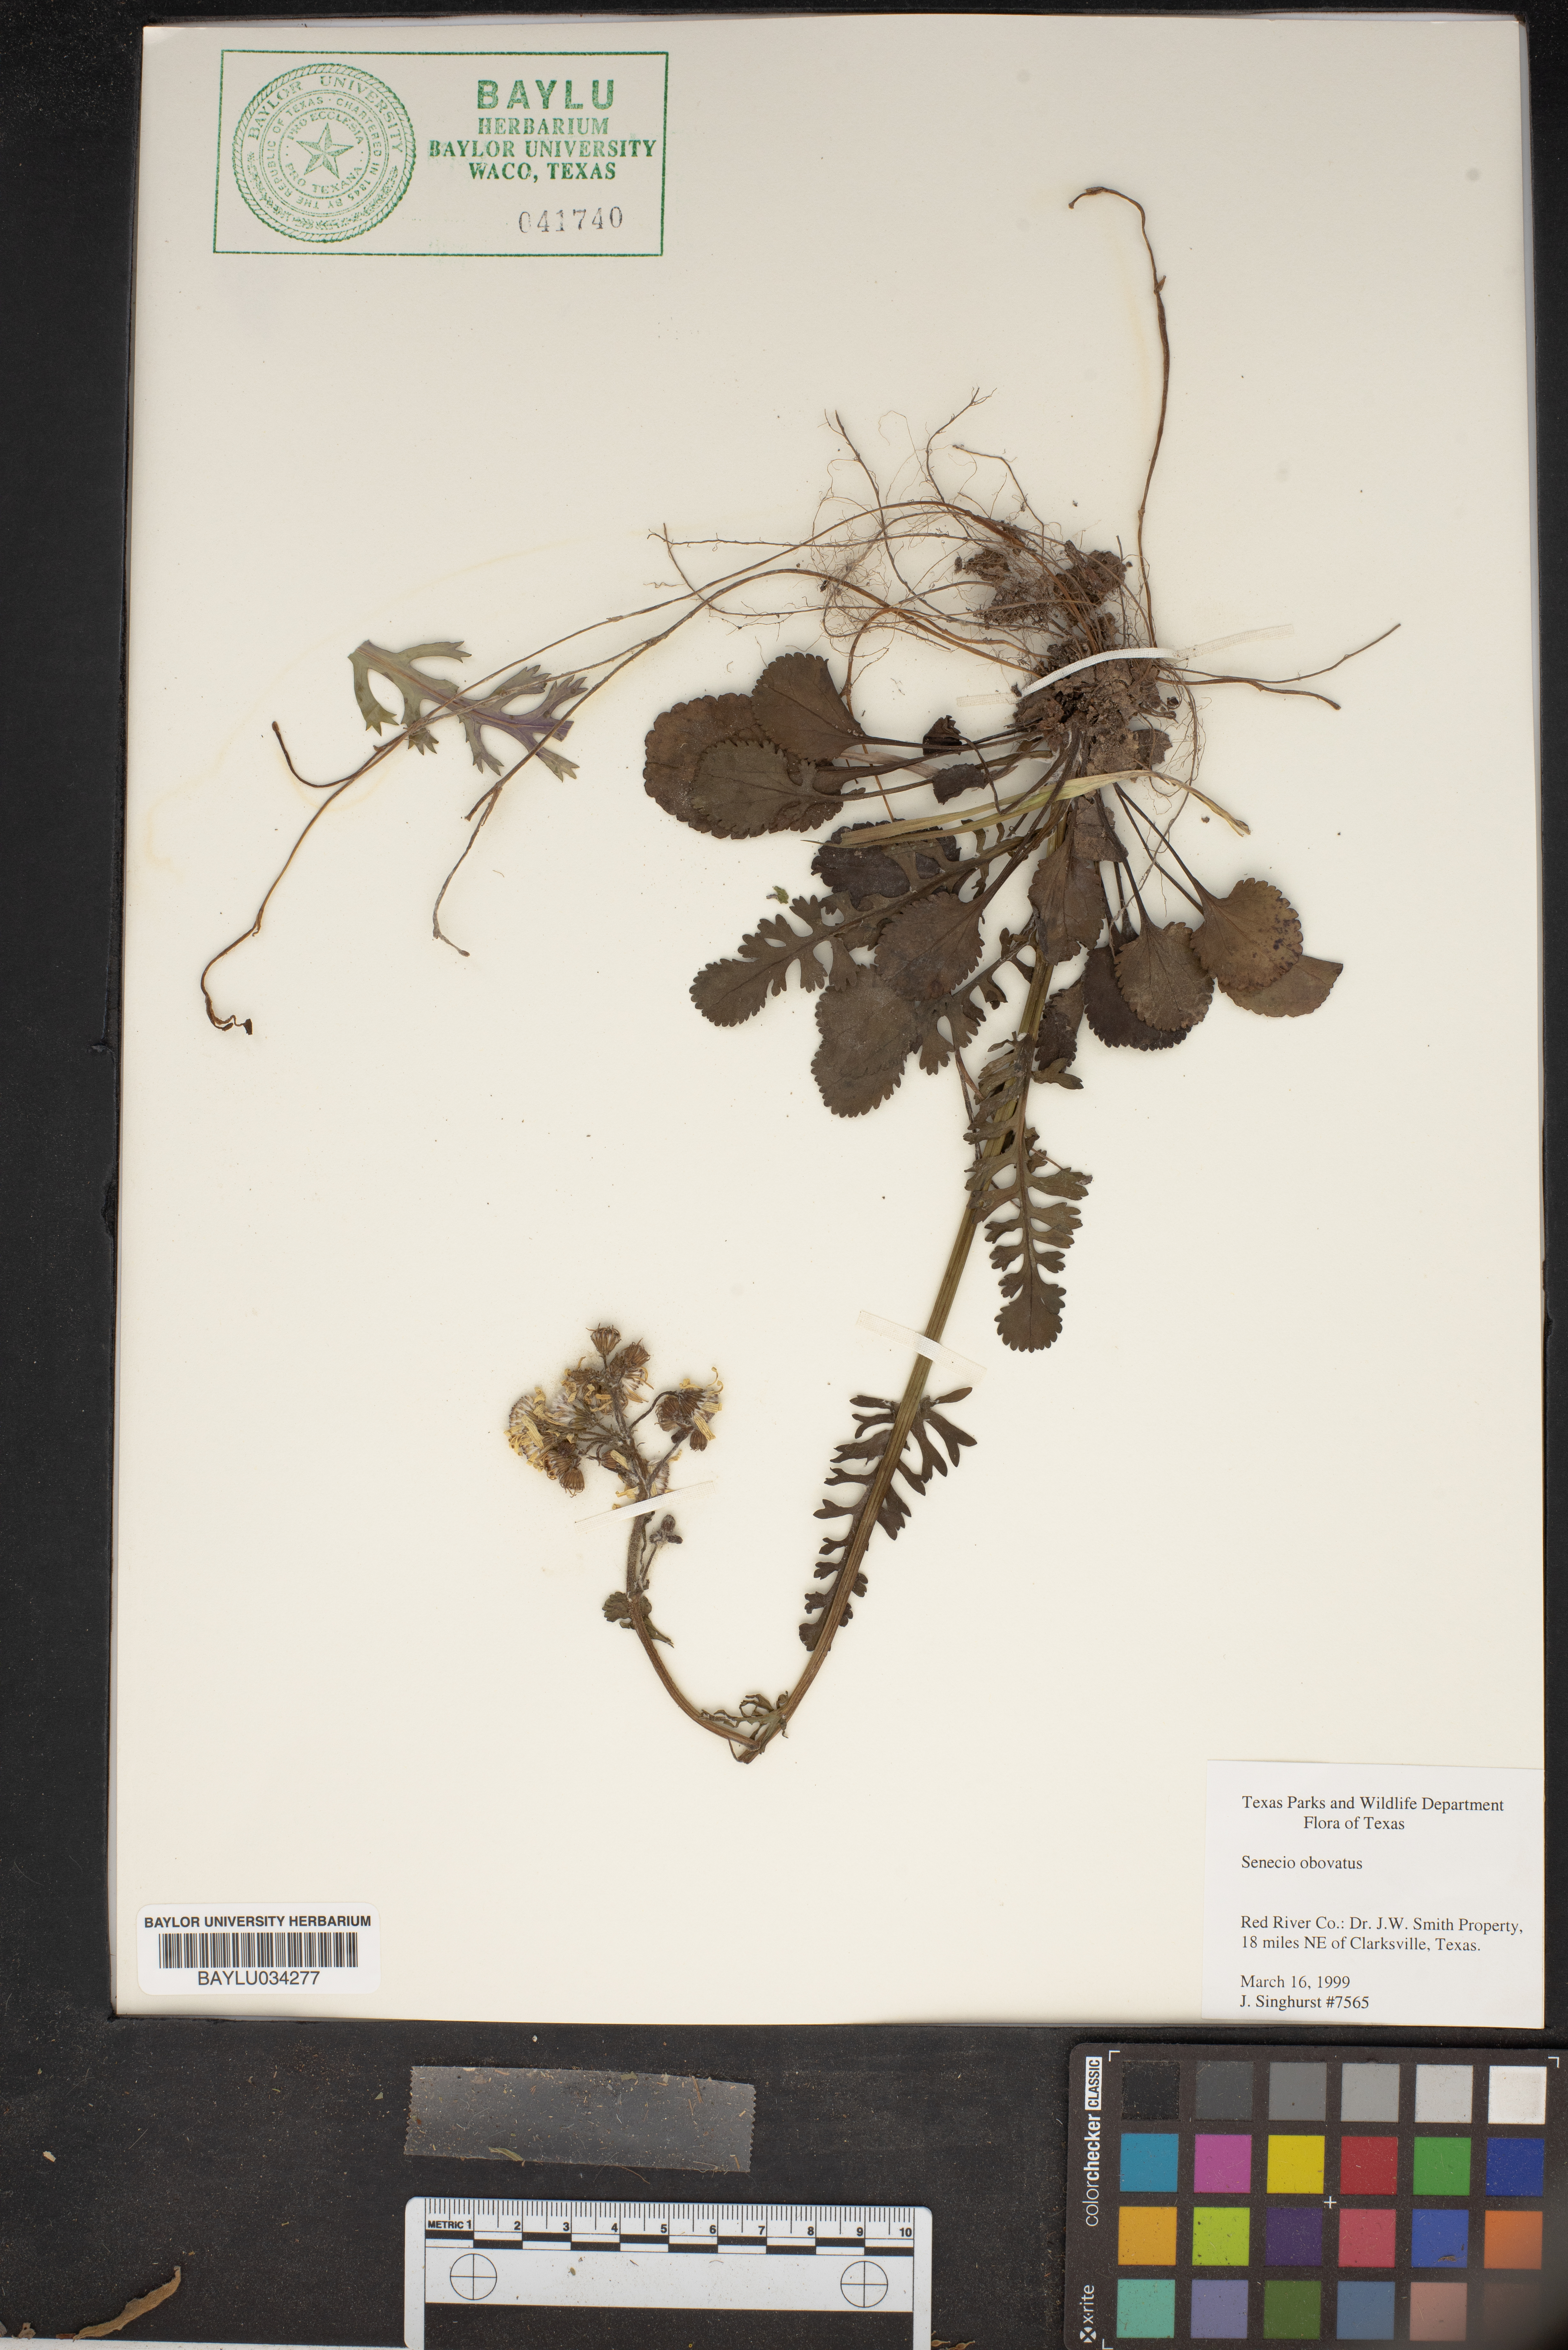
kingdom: Plantae
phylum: Tracheophyta
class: Magnoliopsida
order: Asterales
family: Asteraceae
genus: Senecio
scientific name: Senecio provincialis
